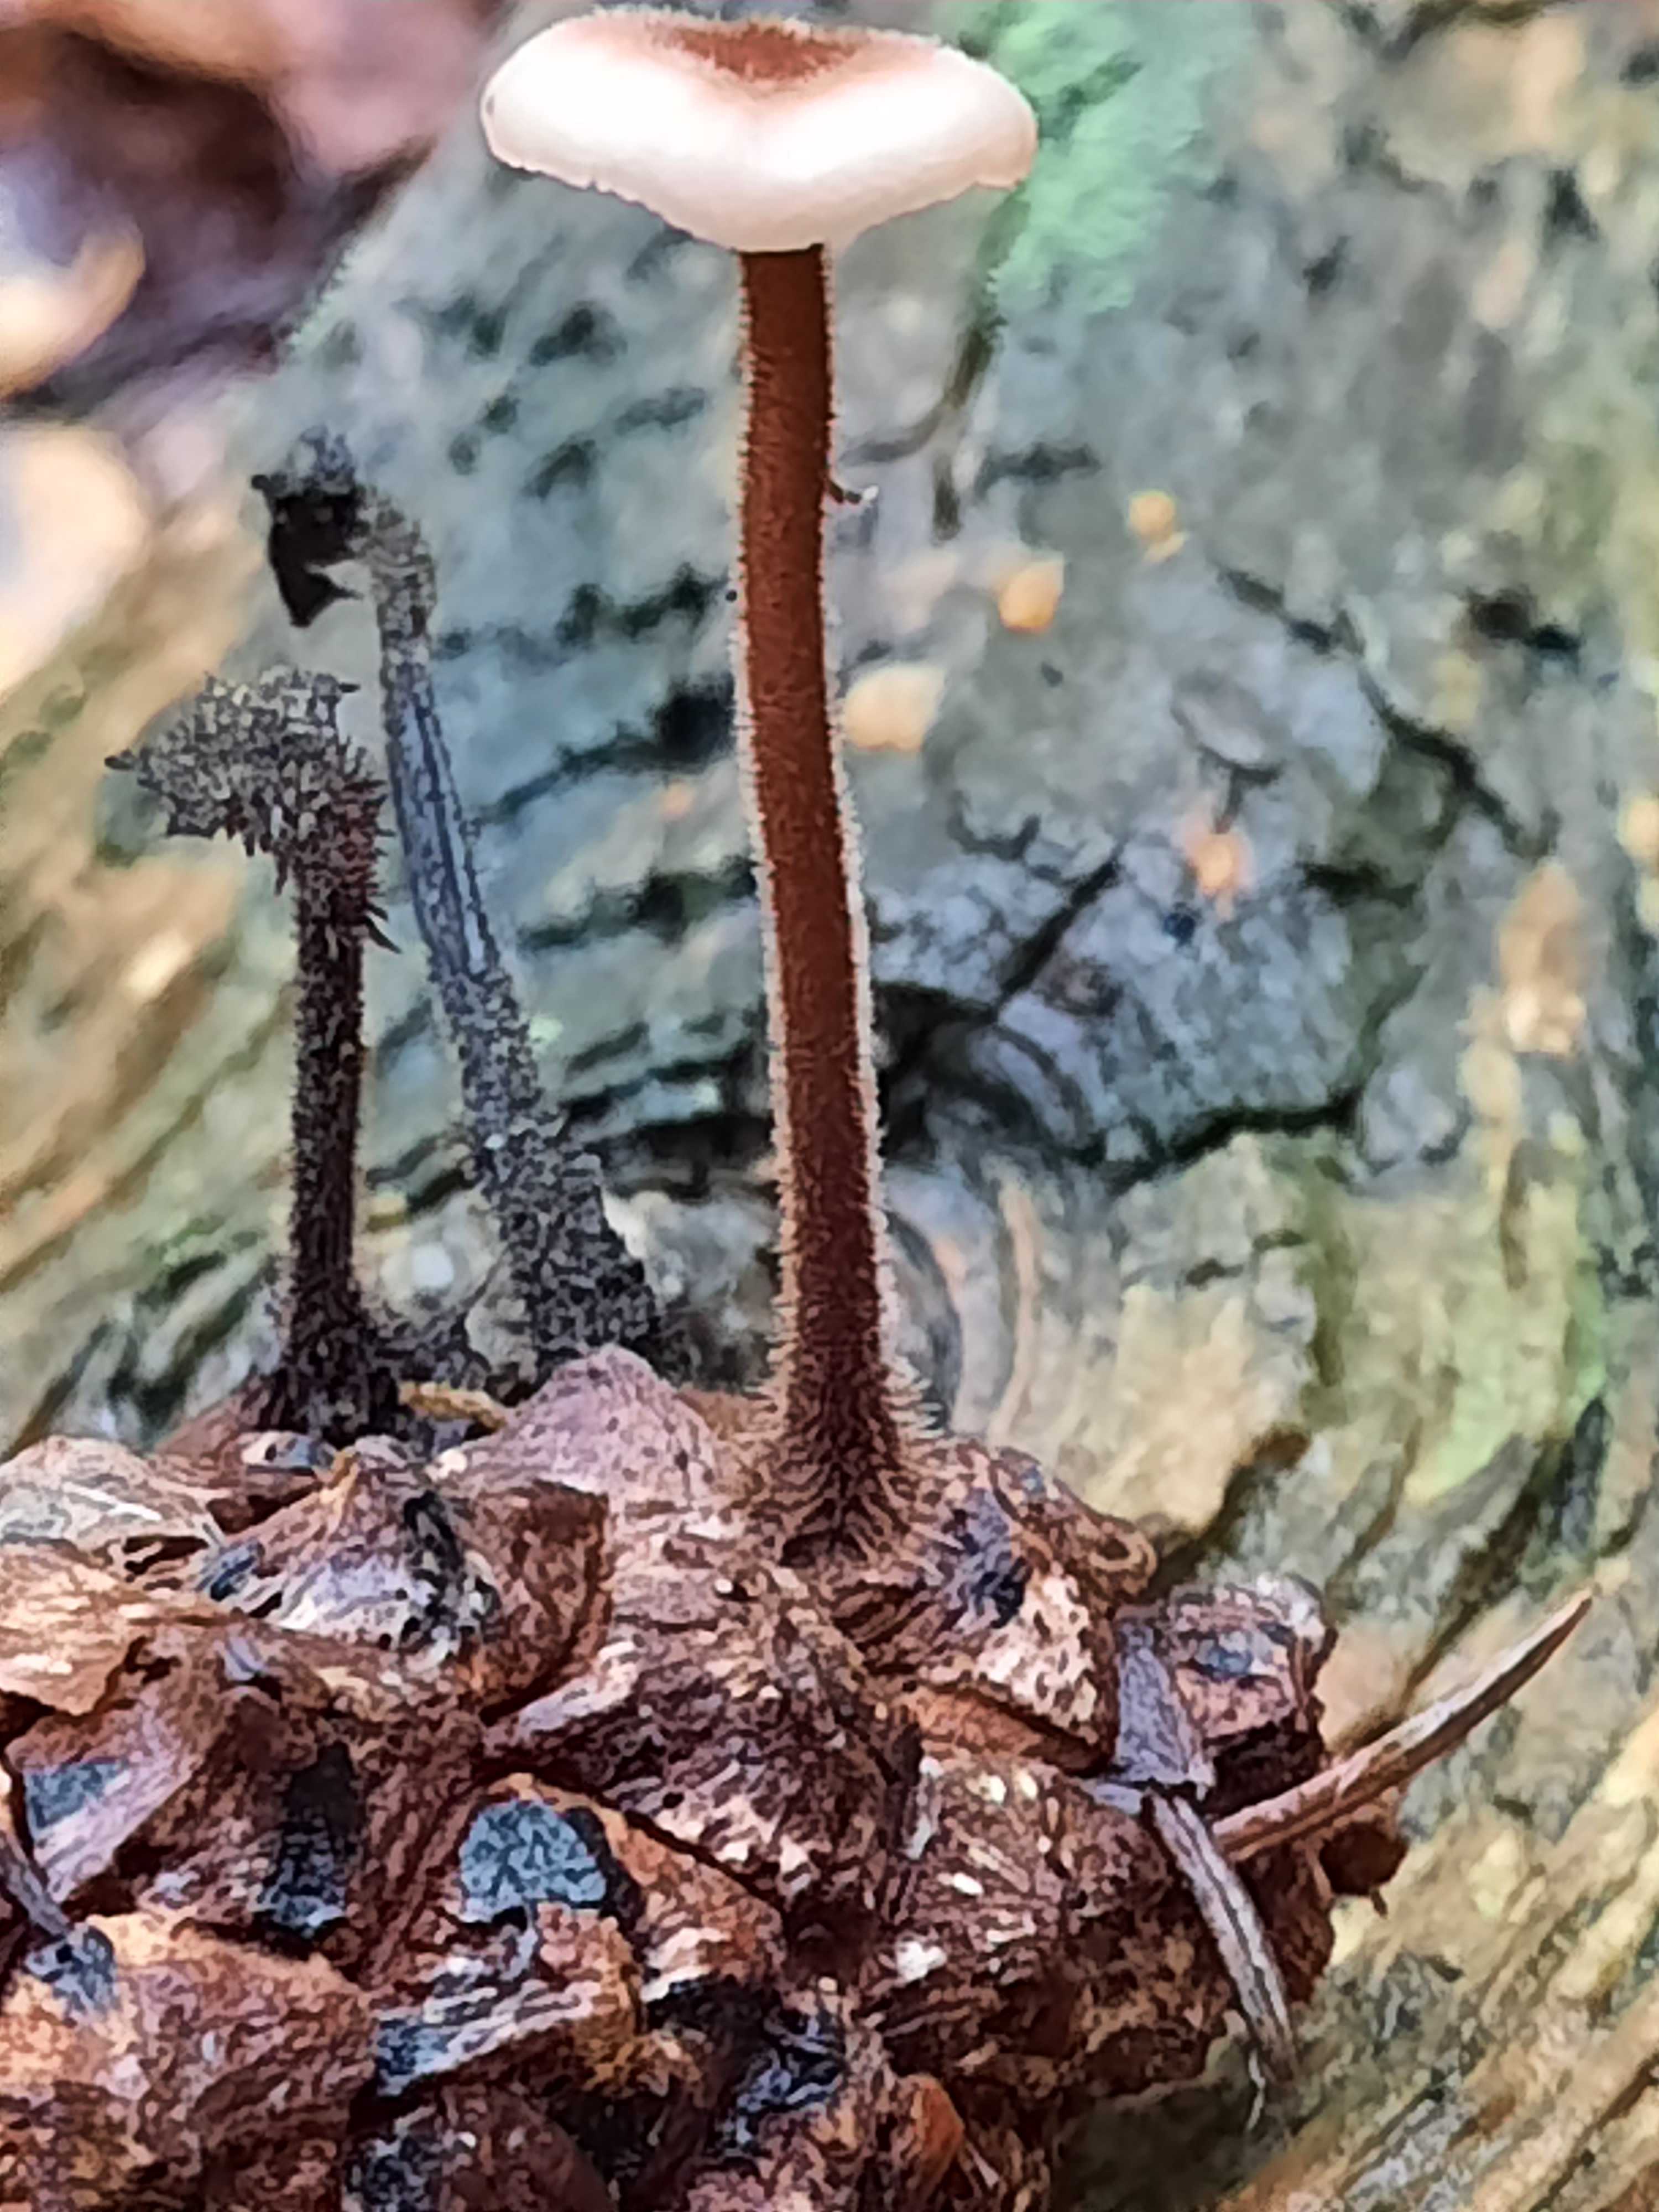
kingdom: Fungi
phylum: Basidiomycota
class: Agaricomycetes
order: Russulales
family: Auriscalpiaceae
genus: Auriscalpium
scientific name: Auriscalpium vulgare
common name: koglepigsvamp
